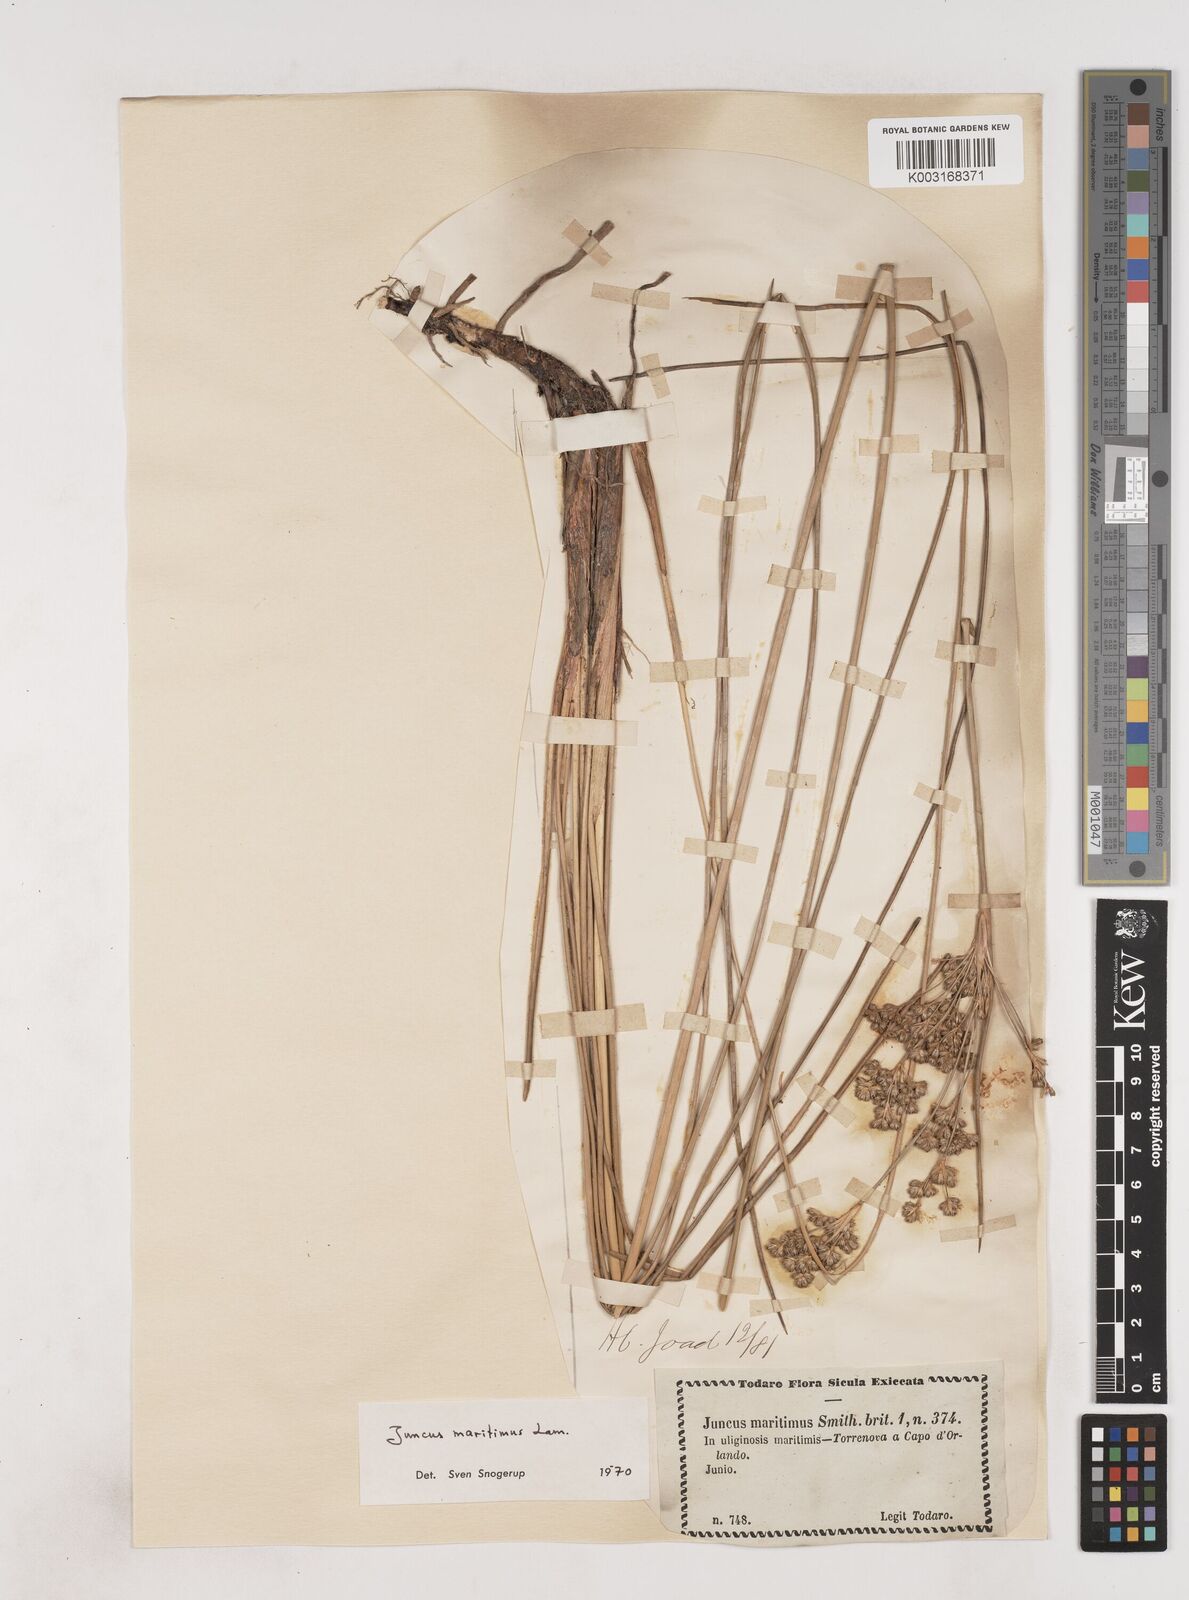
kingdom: Plantae
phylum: Tracheophyta
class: Liliopsida
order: Poales
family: Juncaceae
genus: Luzula
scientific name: Luzula sylvatica
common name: Great wood-rush
